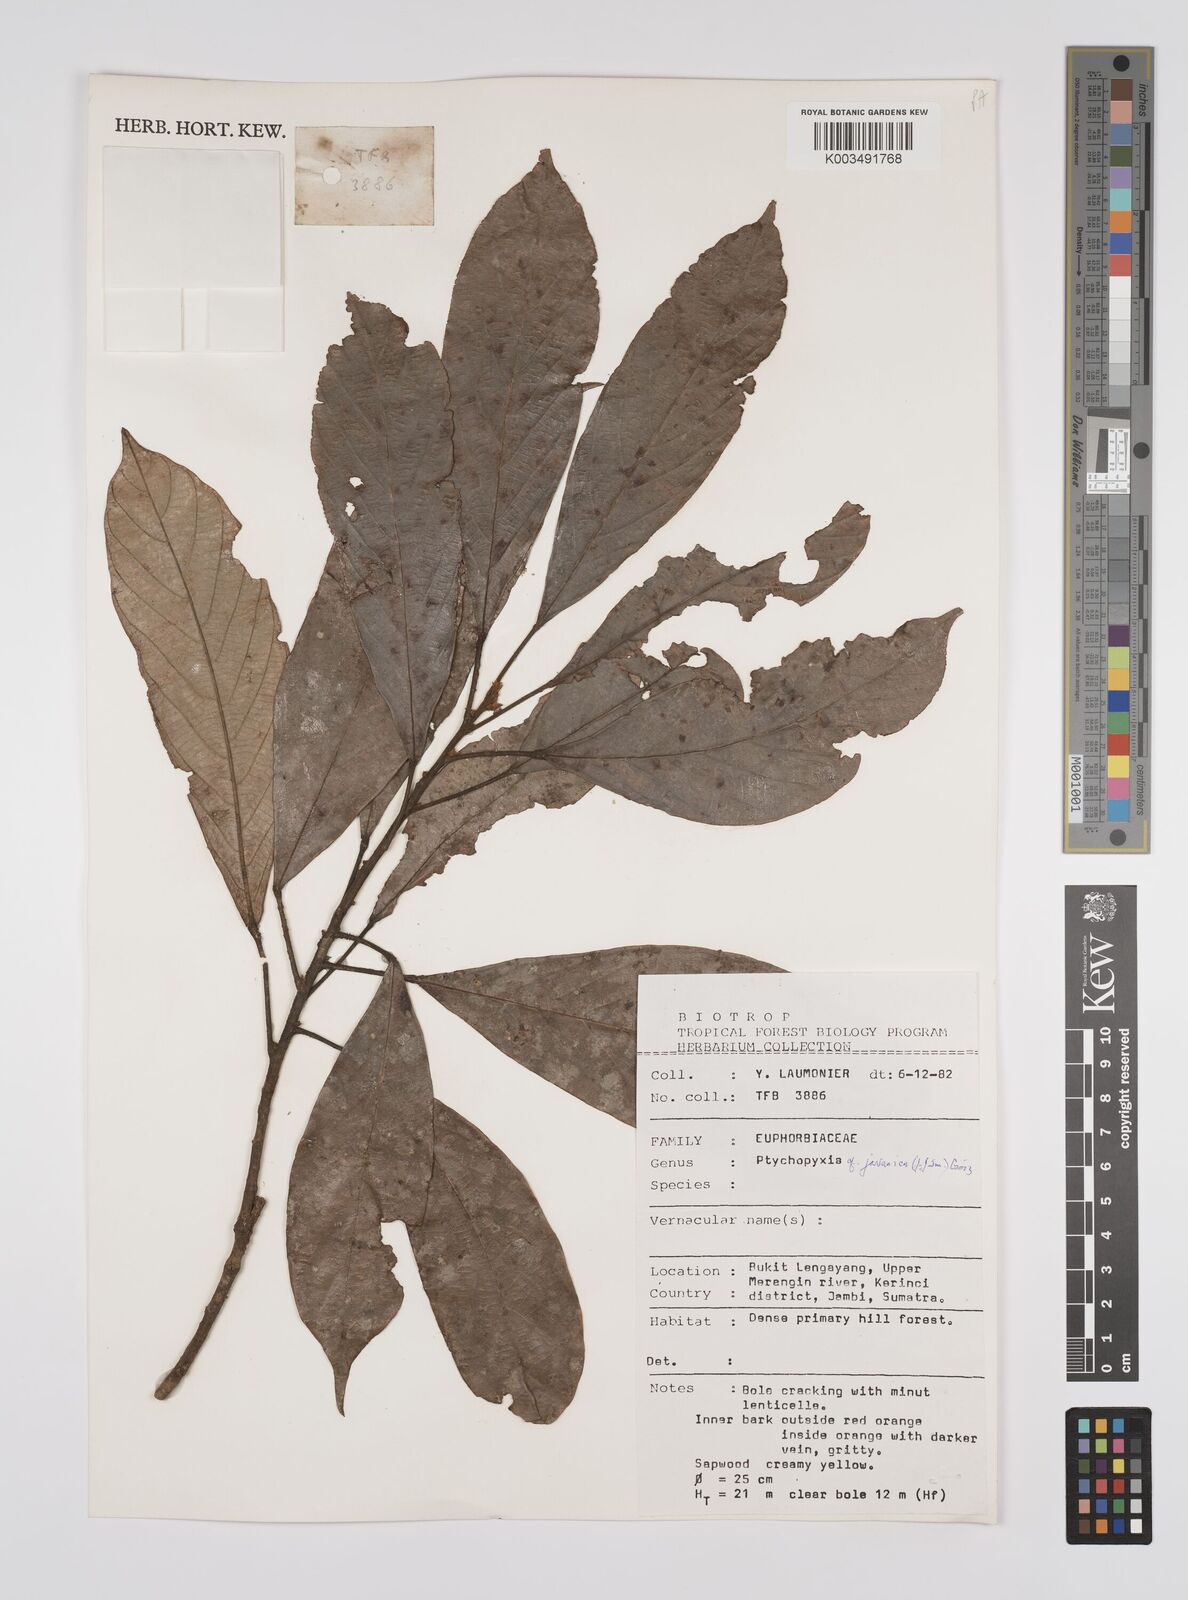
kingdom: Plantae
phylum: Tracheophyta
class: Magnoliopsida
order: Malpighiales
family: Euphorbiaceae
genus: Ptychopyxis
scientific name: Ptychopyxis javanica
